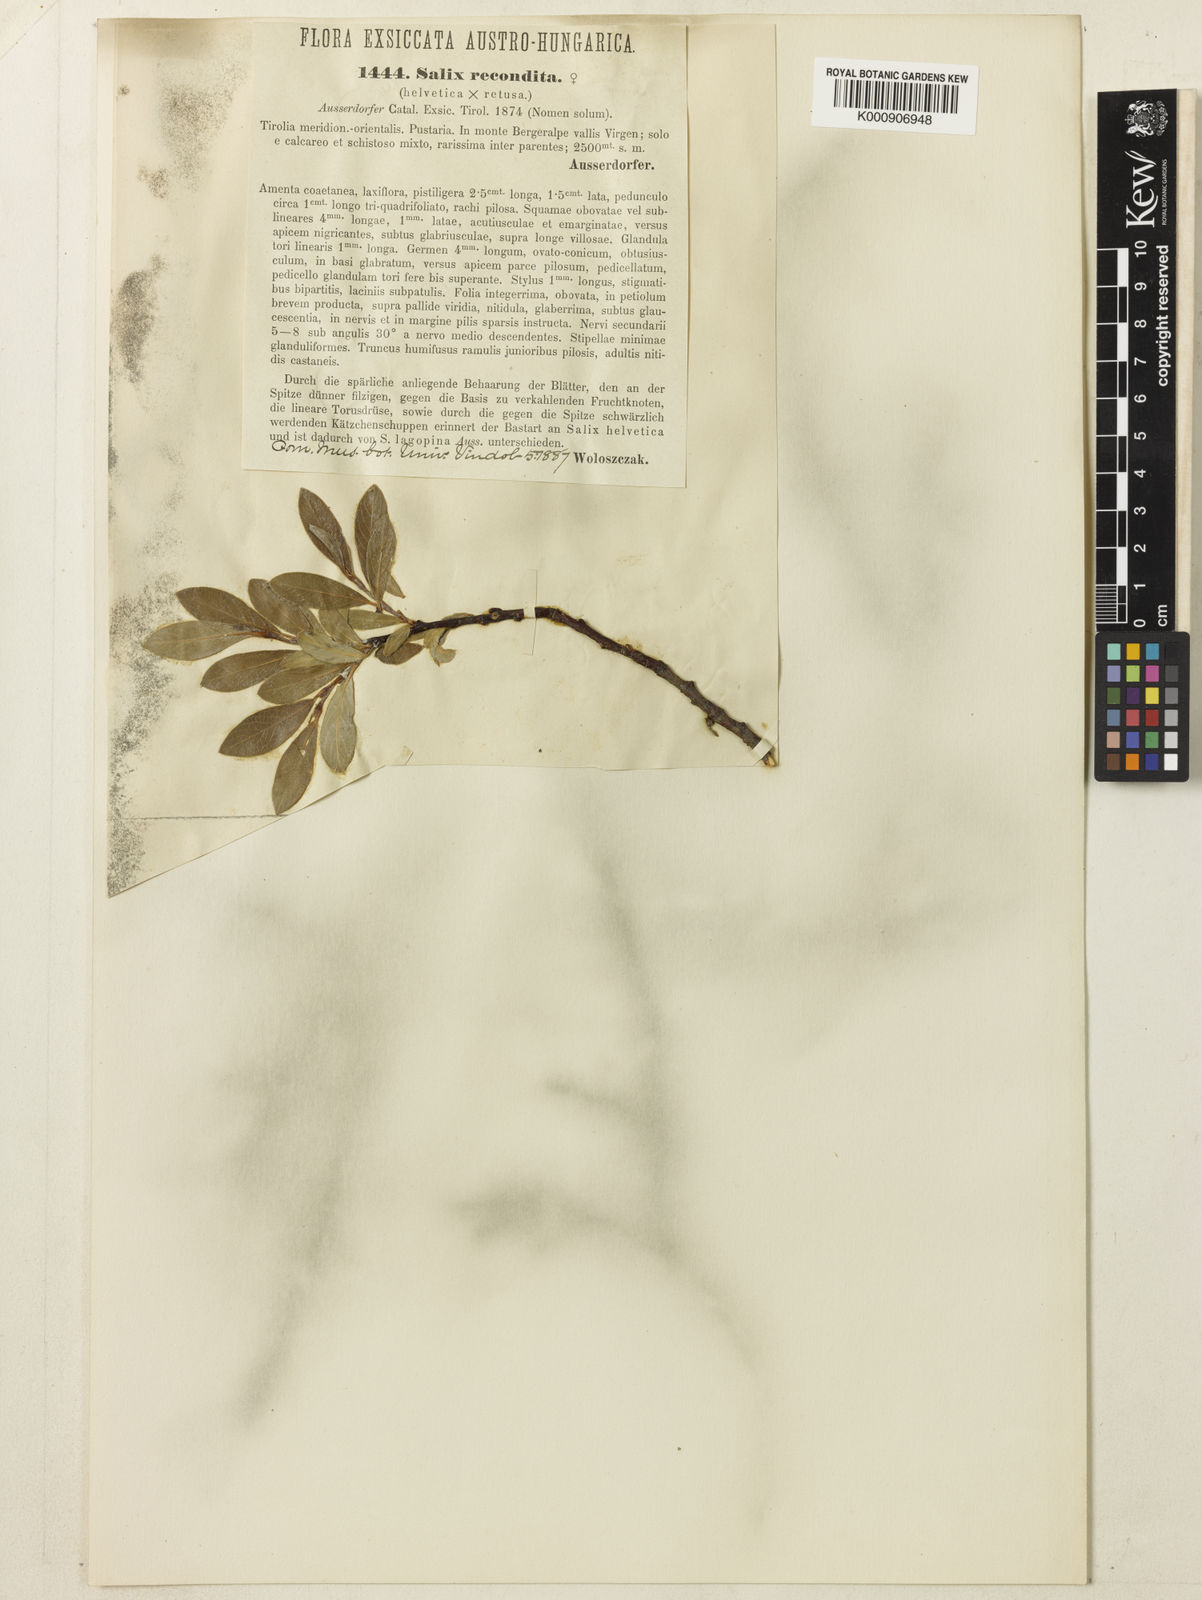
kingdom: Plantae
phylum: Tracheophyta
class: Magnoliopsida
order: Malpighiales
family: Salicaceae
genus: Salix
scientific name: Salix lapponum
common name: Downy willow
